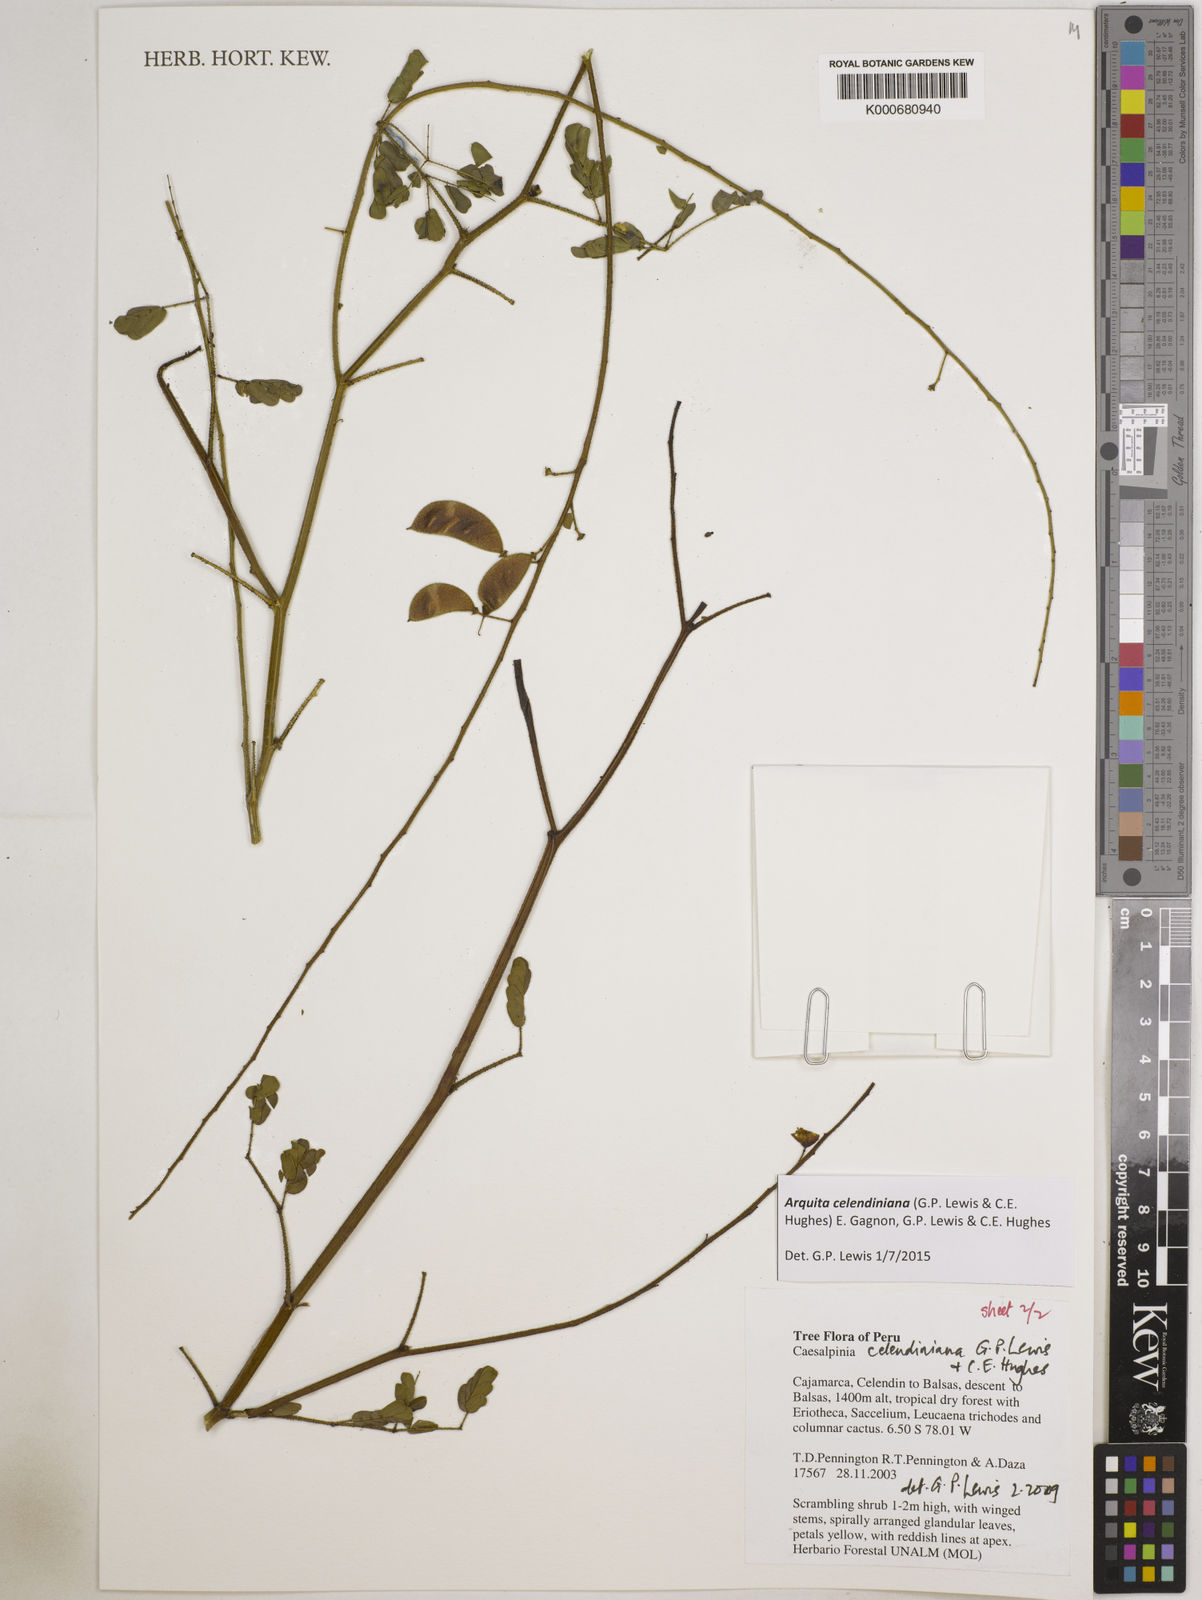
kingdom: Plantae
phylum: Tracheophyta
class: Magnoliopsida
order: Fabales
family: Fabaceae
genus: Arquita
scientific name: Arquita celendiniana
